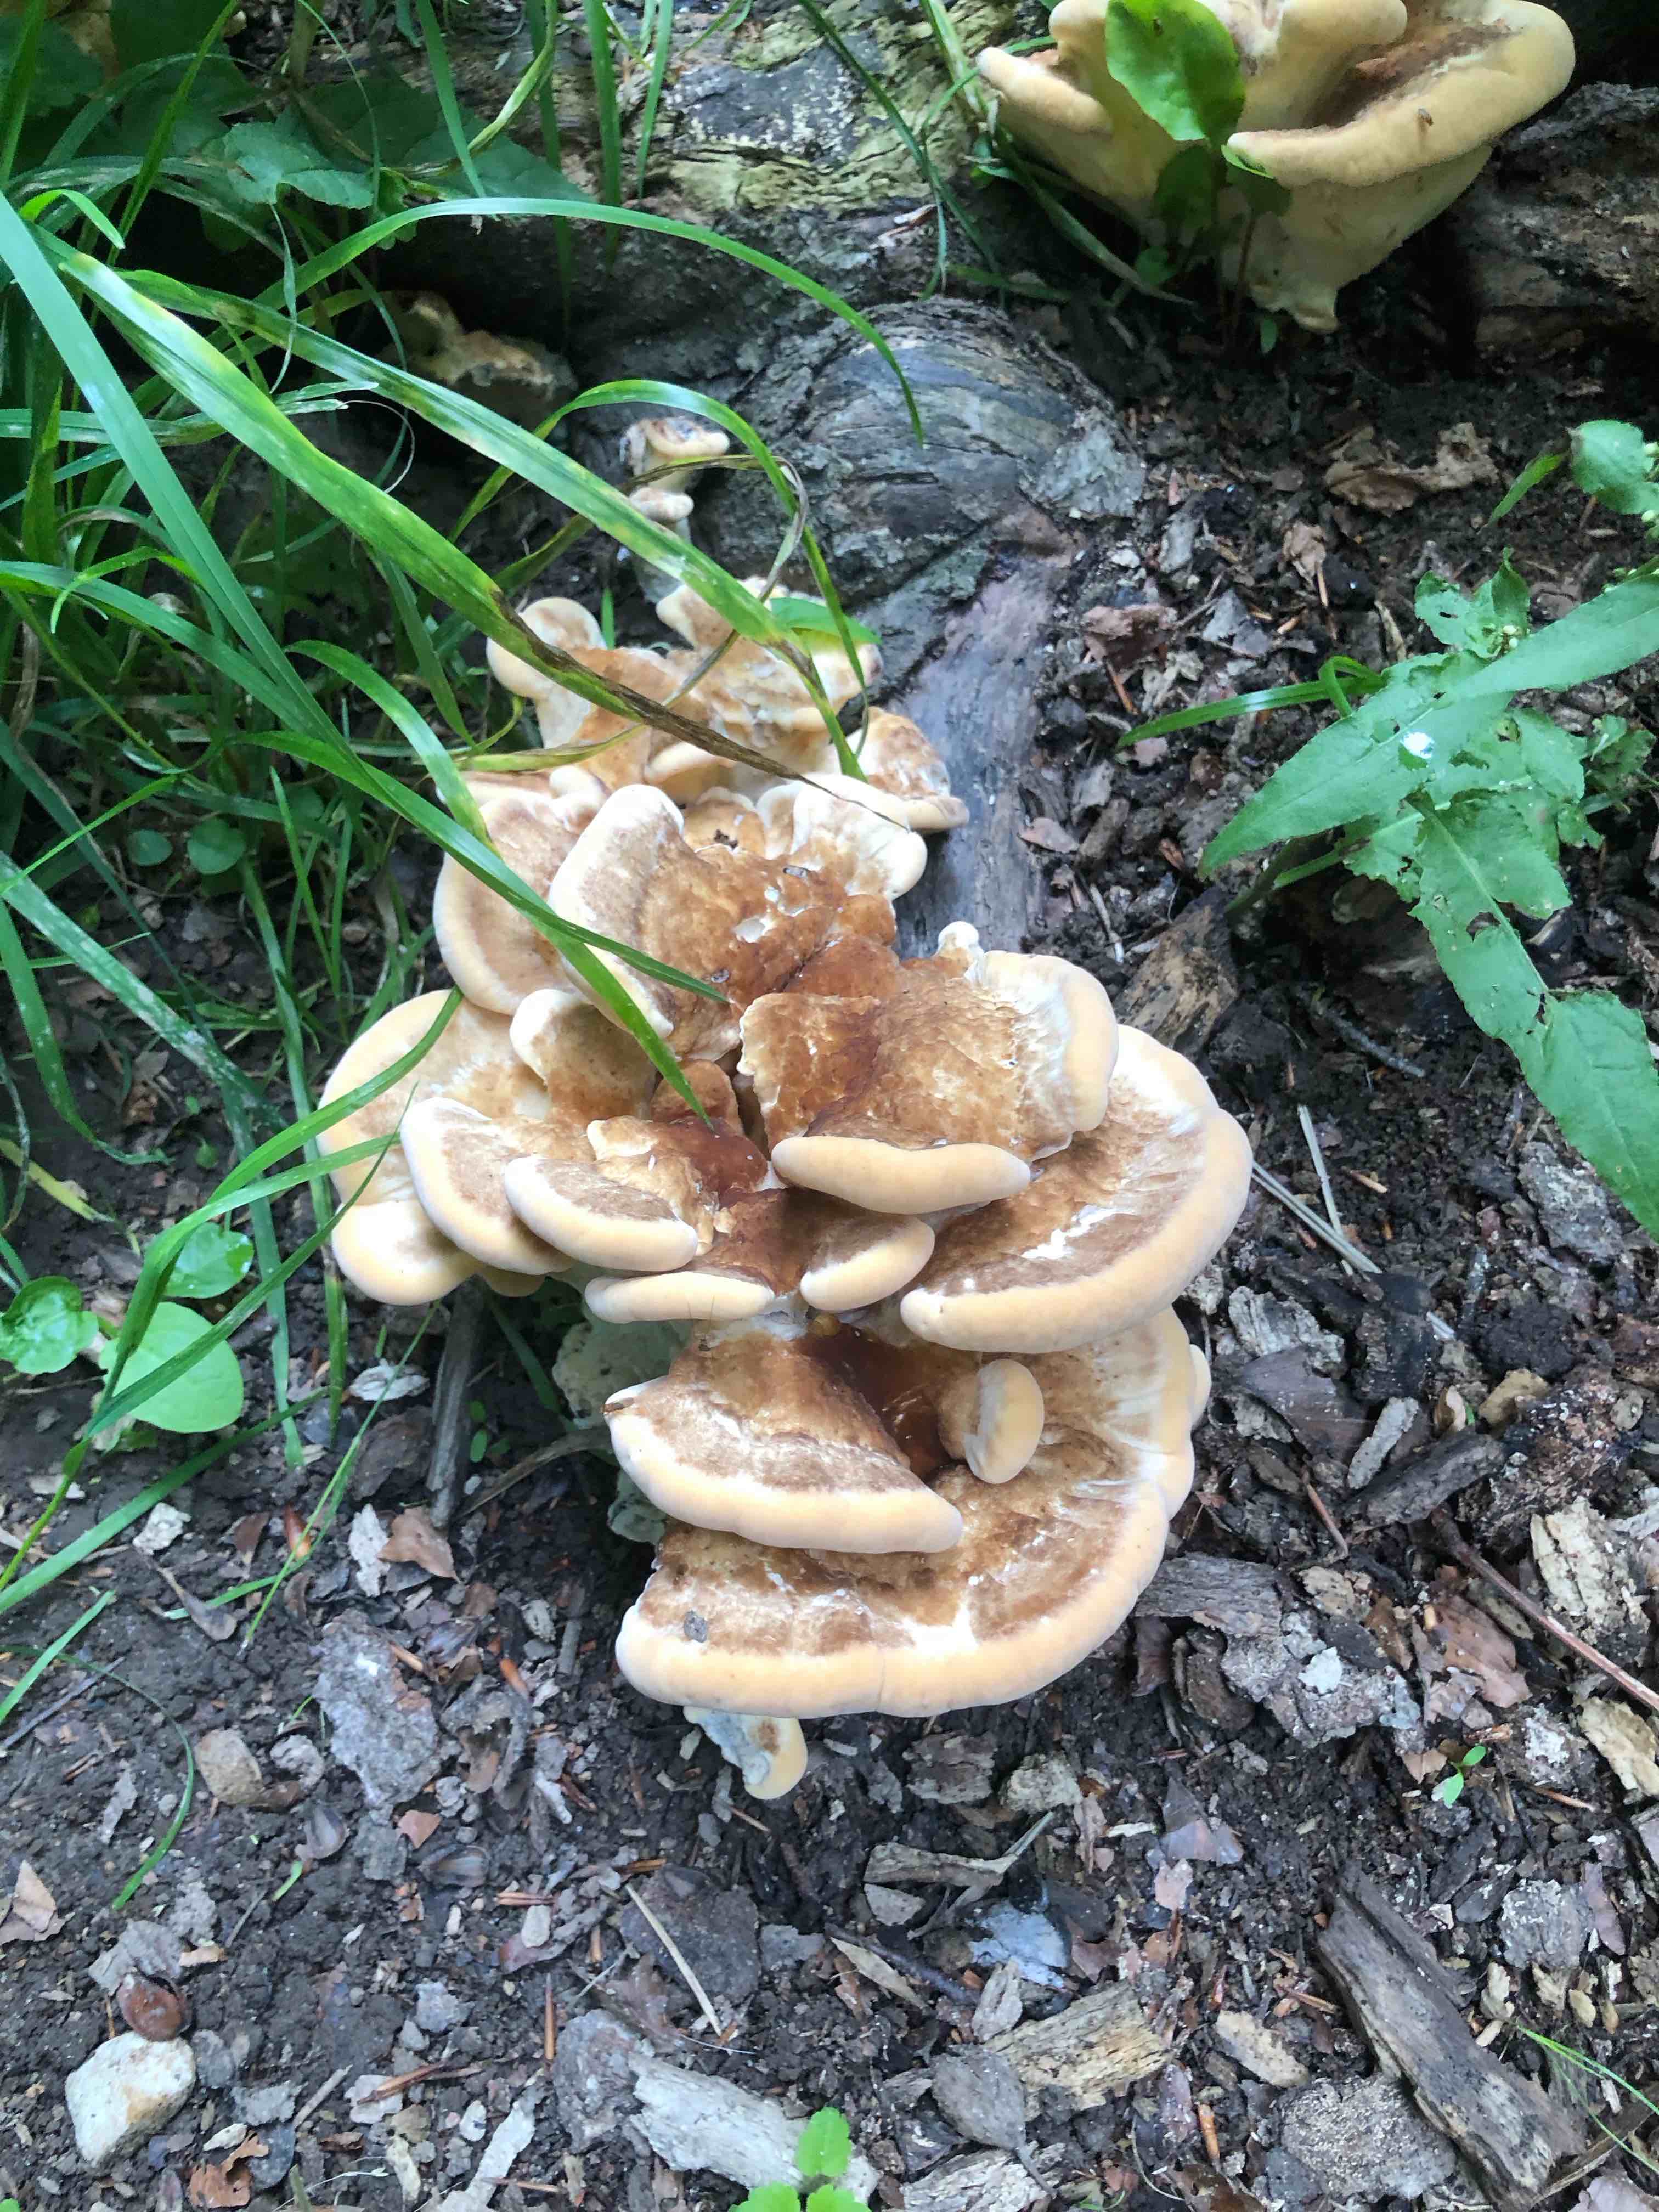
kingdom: Fungi
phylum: Basidiomycota
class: Agaricomycetes
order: Polyporales
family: Meripilaceae
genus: Meripilus
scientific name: Meripilus giganteus
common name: kæmpeporesvamp
